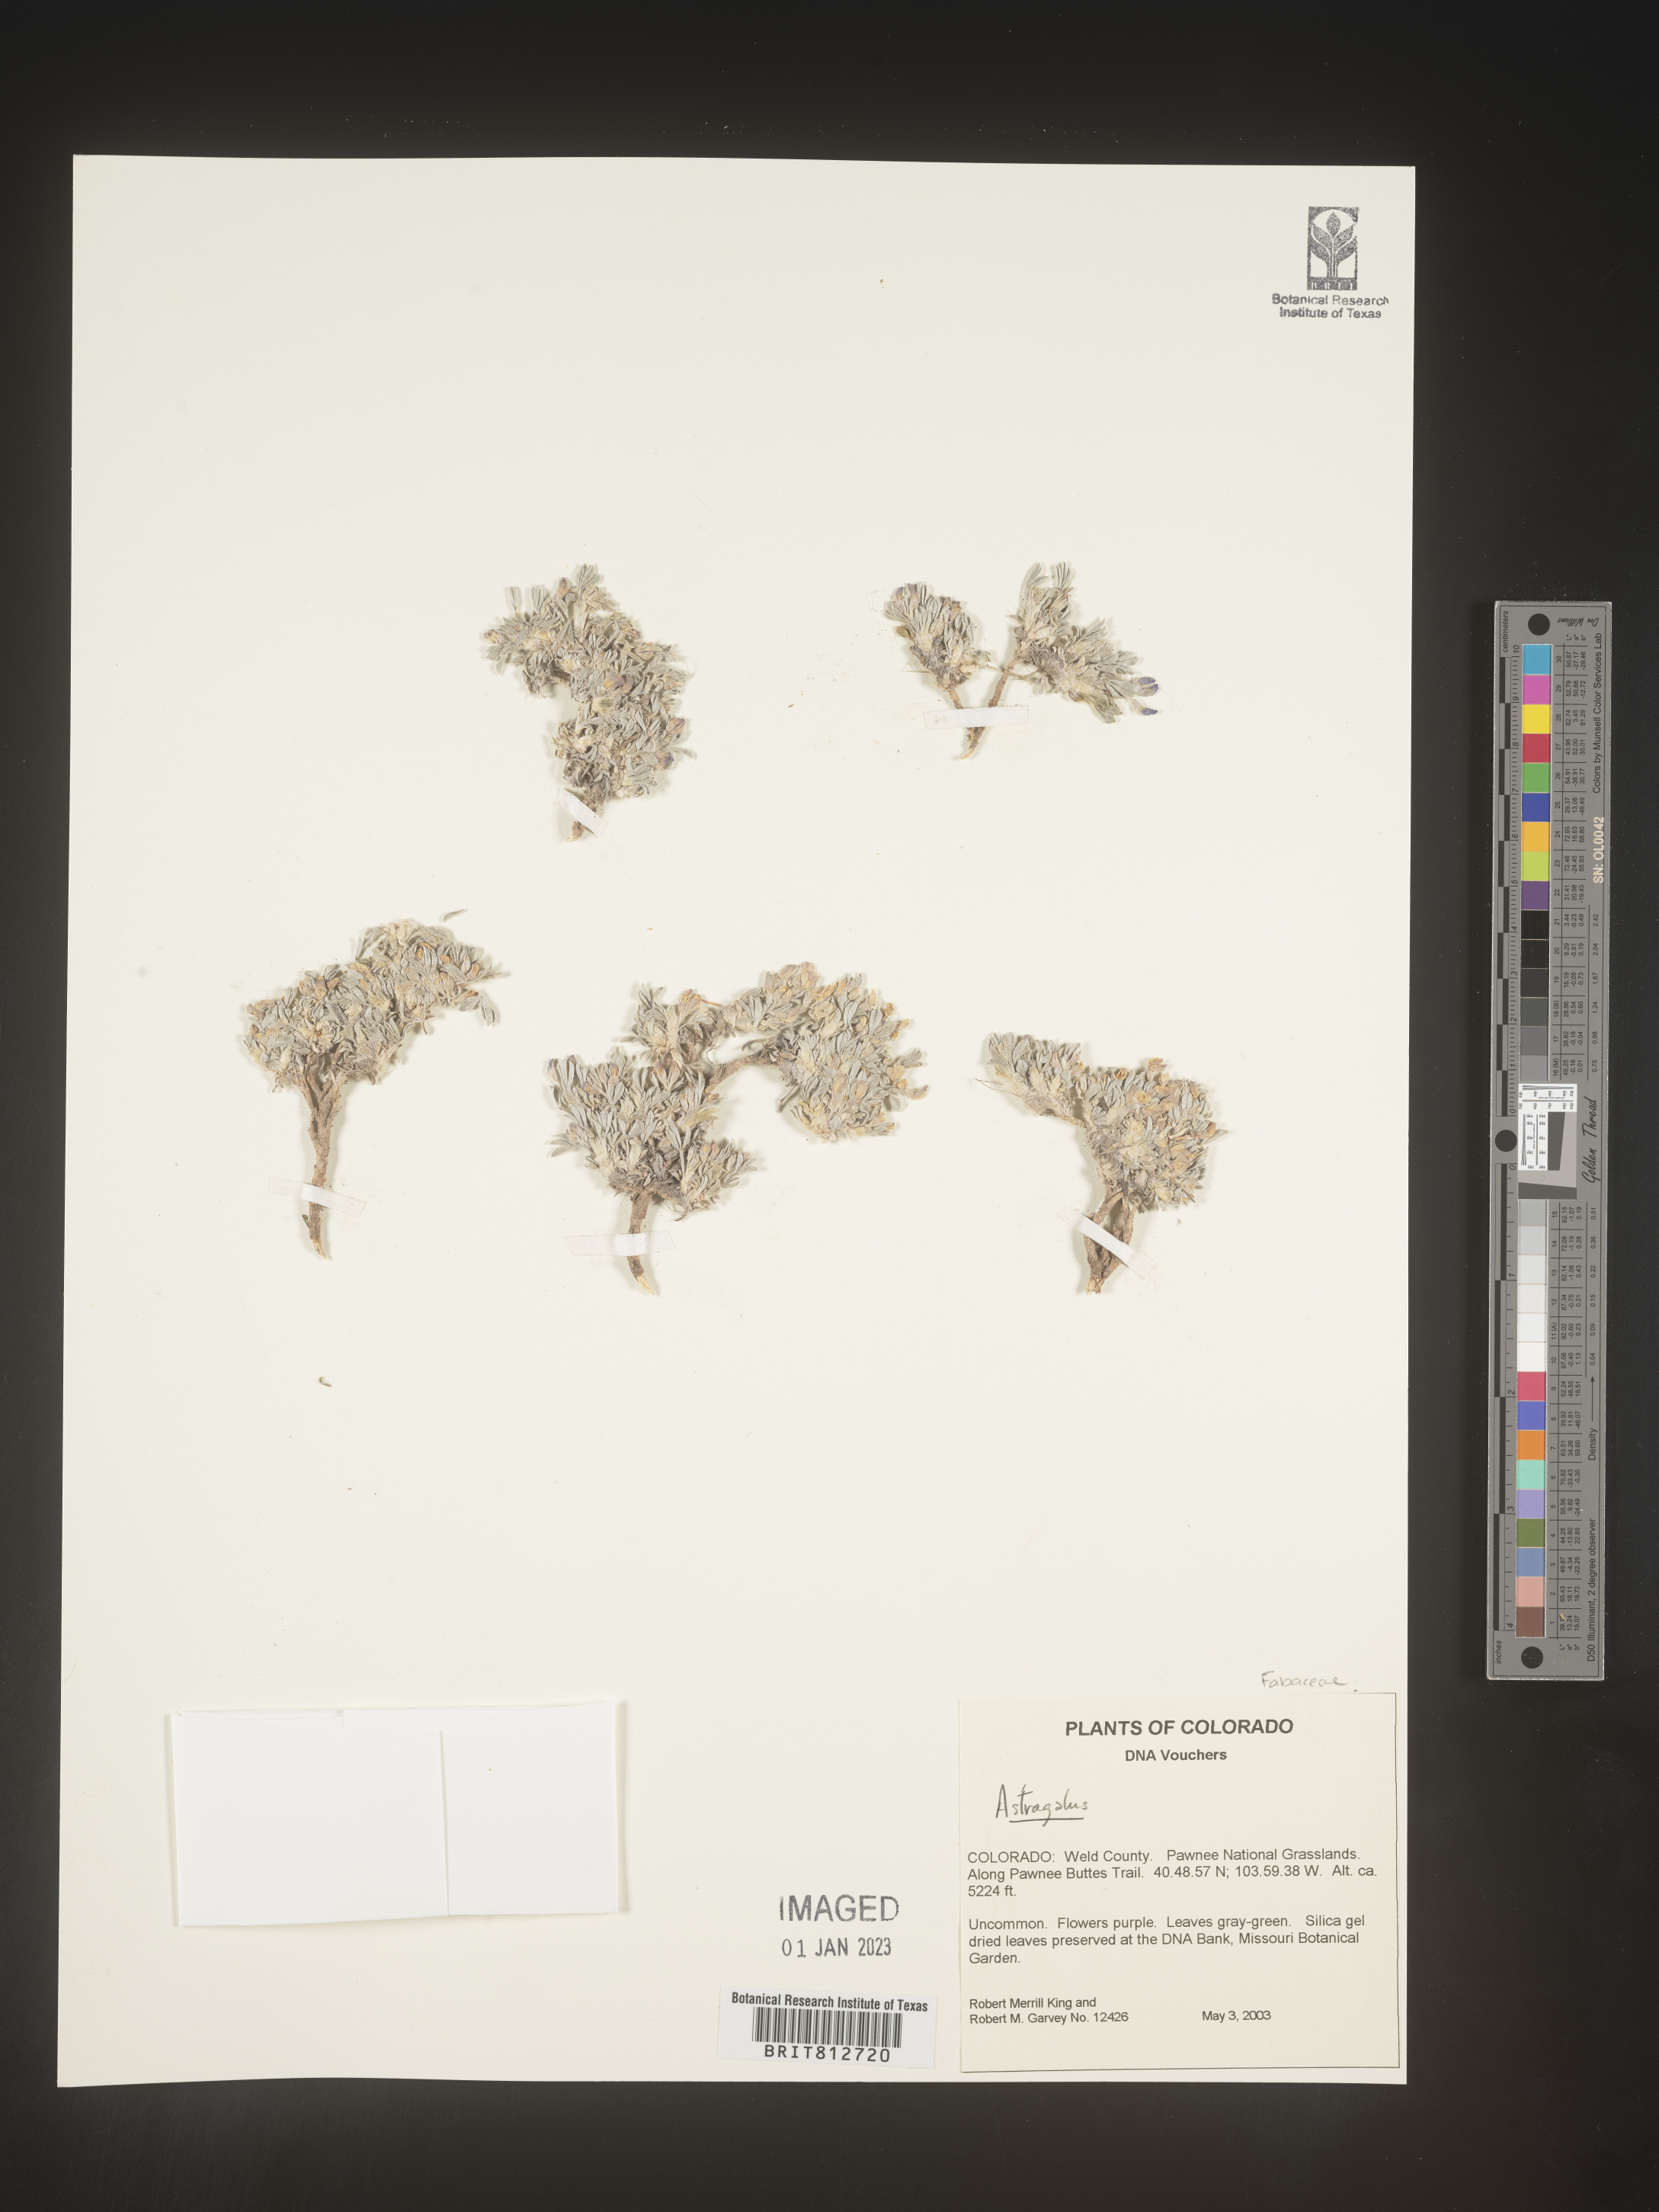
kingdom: Plantae
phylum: Tracheophyta
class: Magnoliopsida
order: Fabales
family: Fabaceae
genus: Astragalus
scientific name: Astragalus
